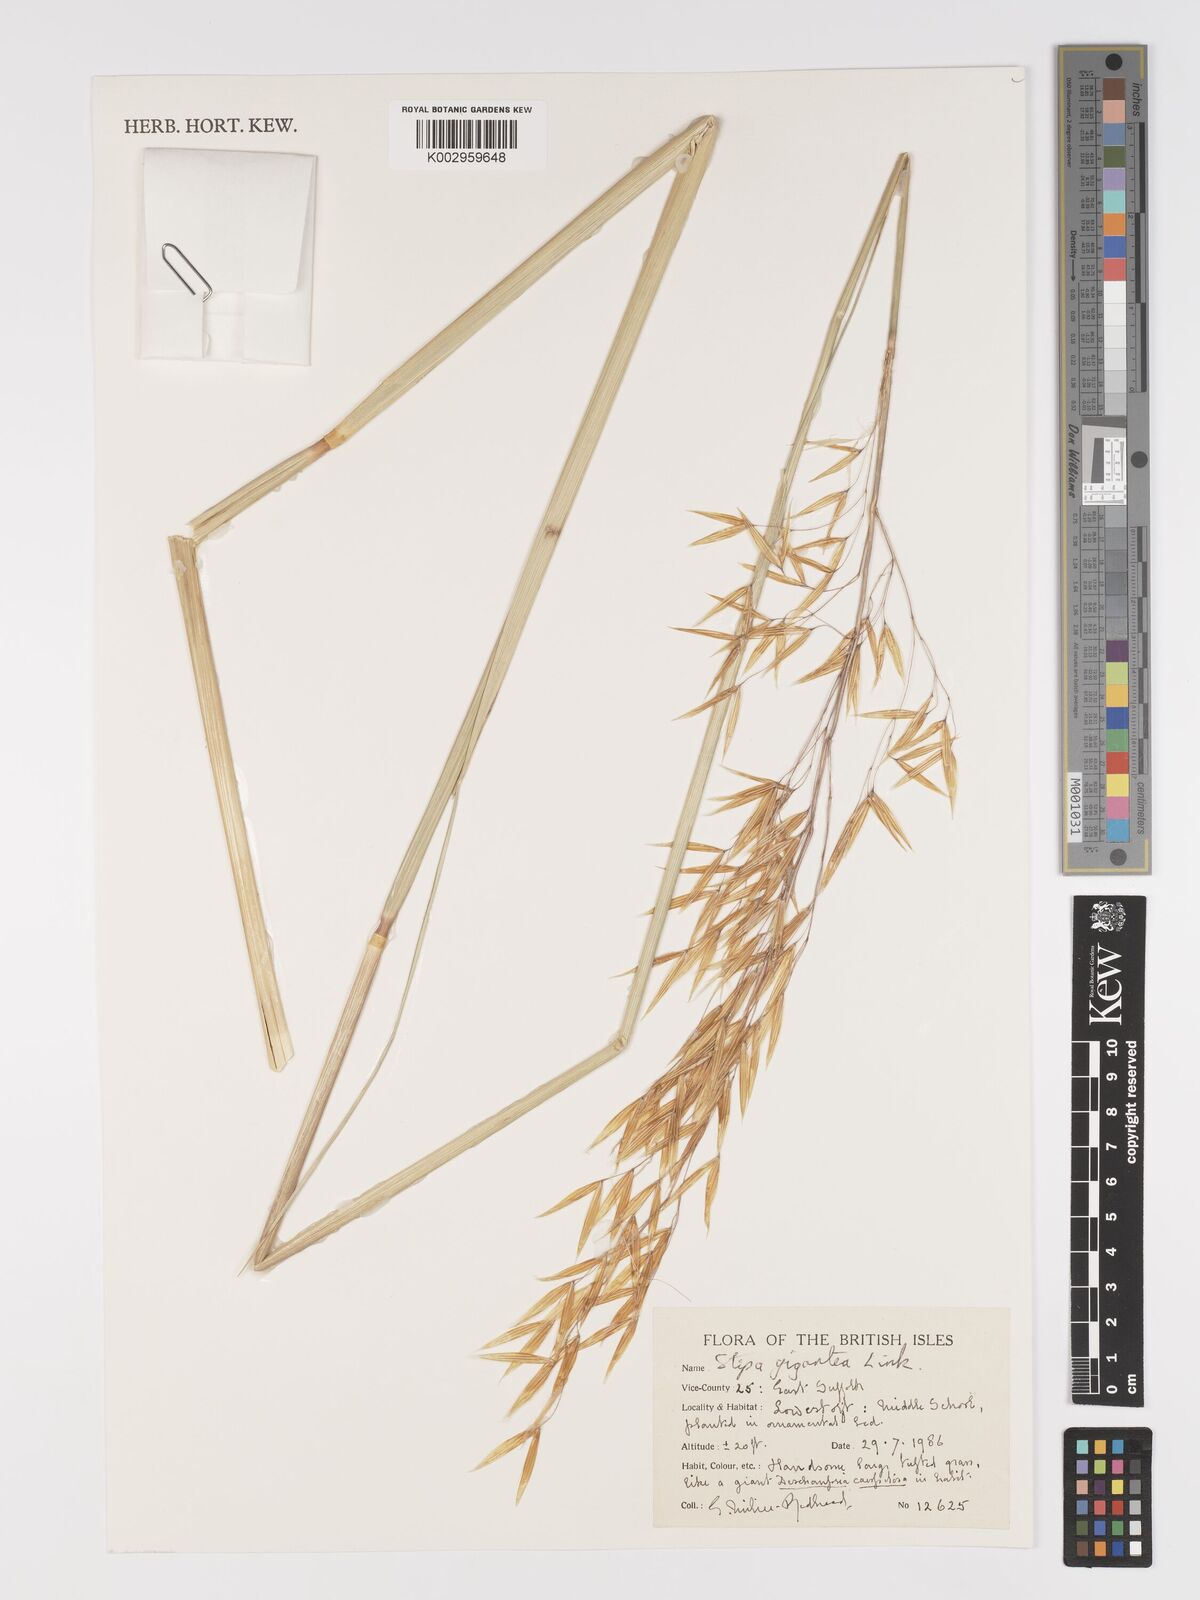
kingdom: Plantae
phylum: Tracheophyta
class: Liliopsida
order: Poales
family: Poaceae
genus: Celtica
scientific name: Celtica gigantea
